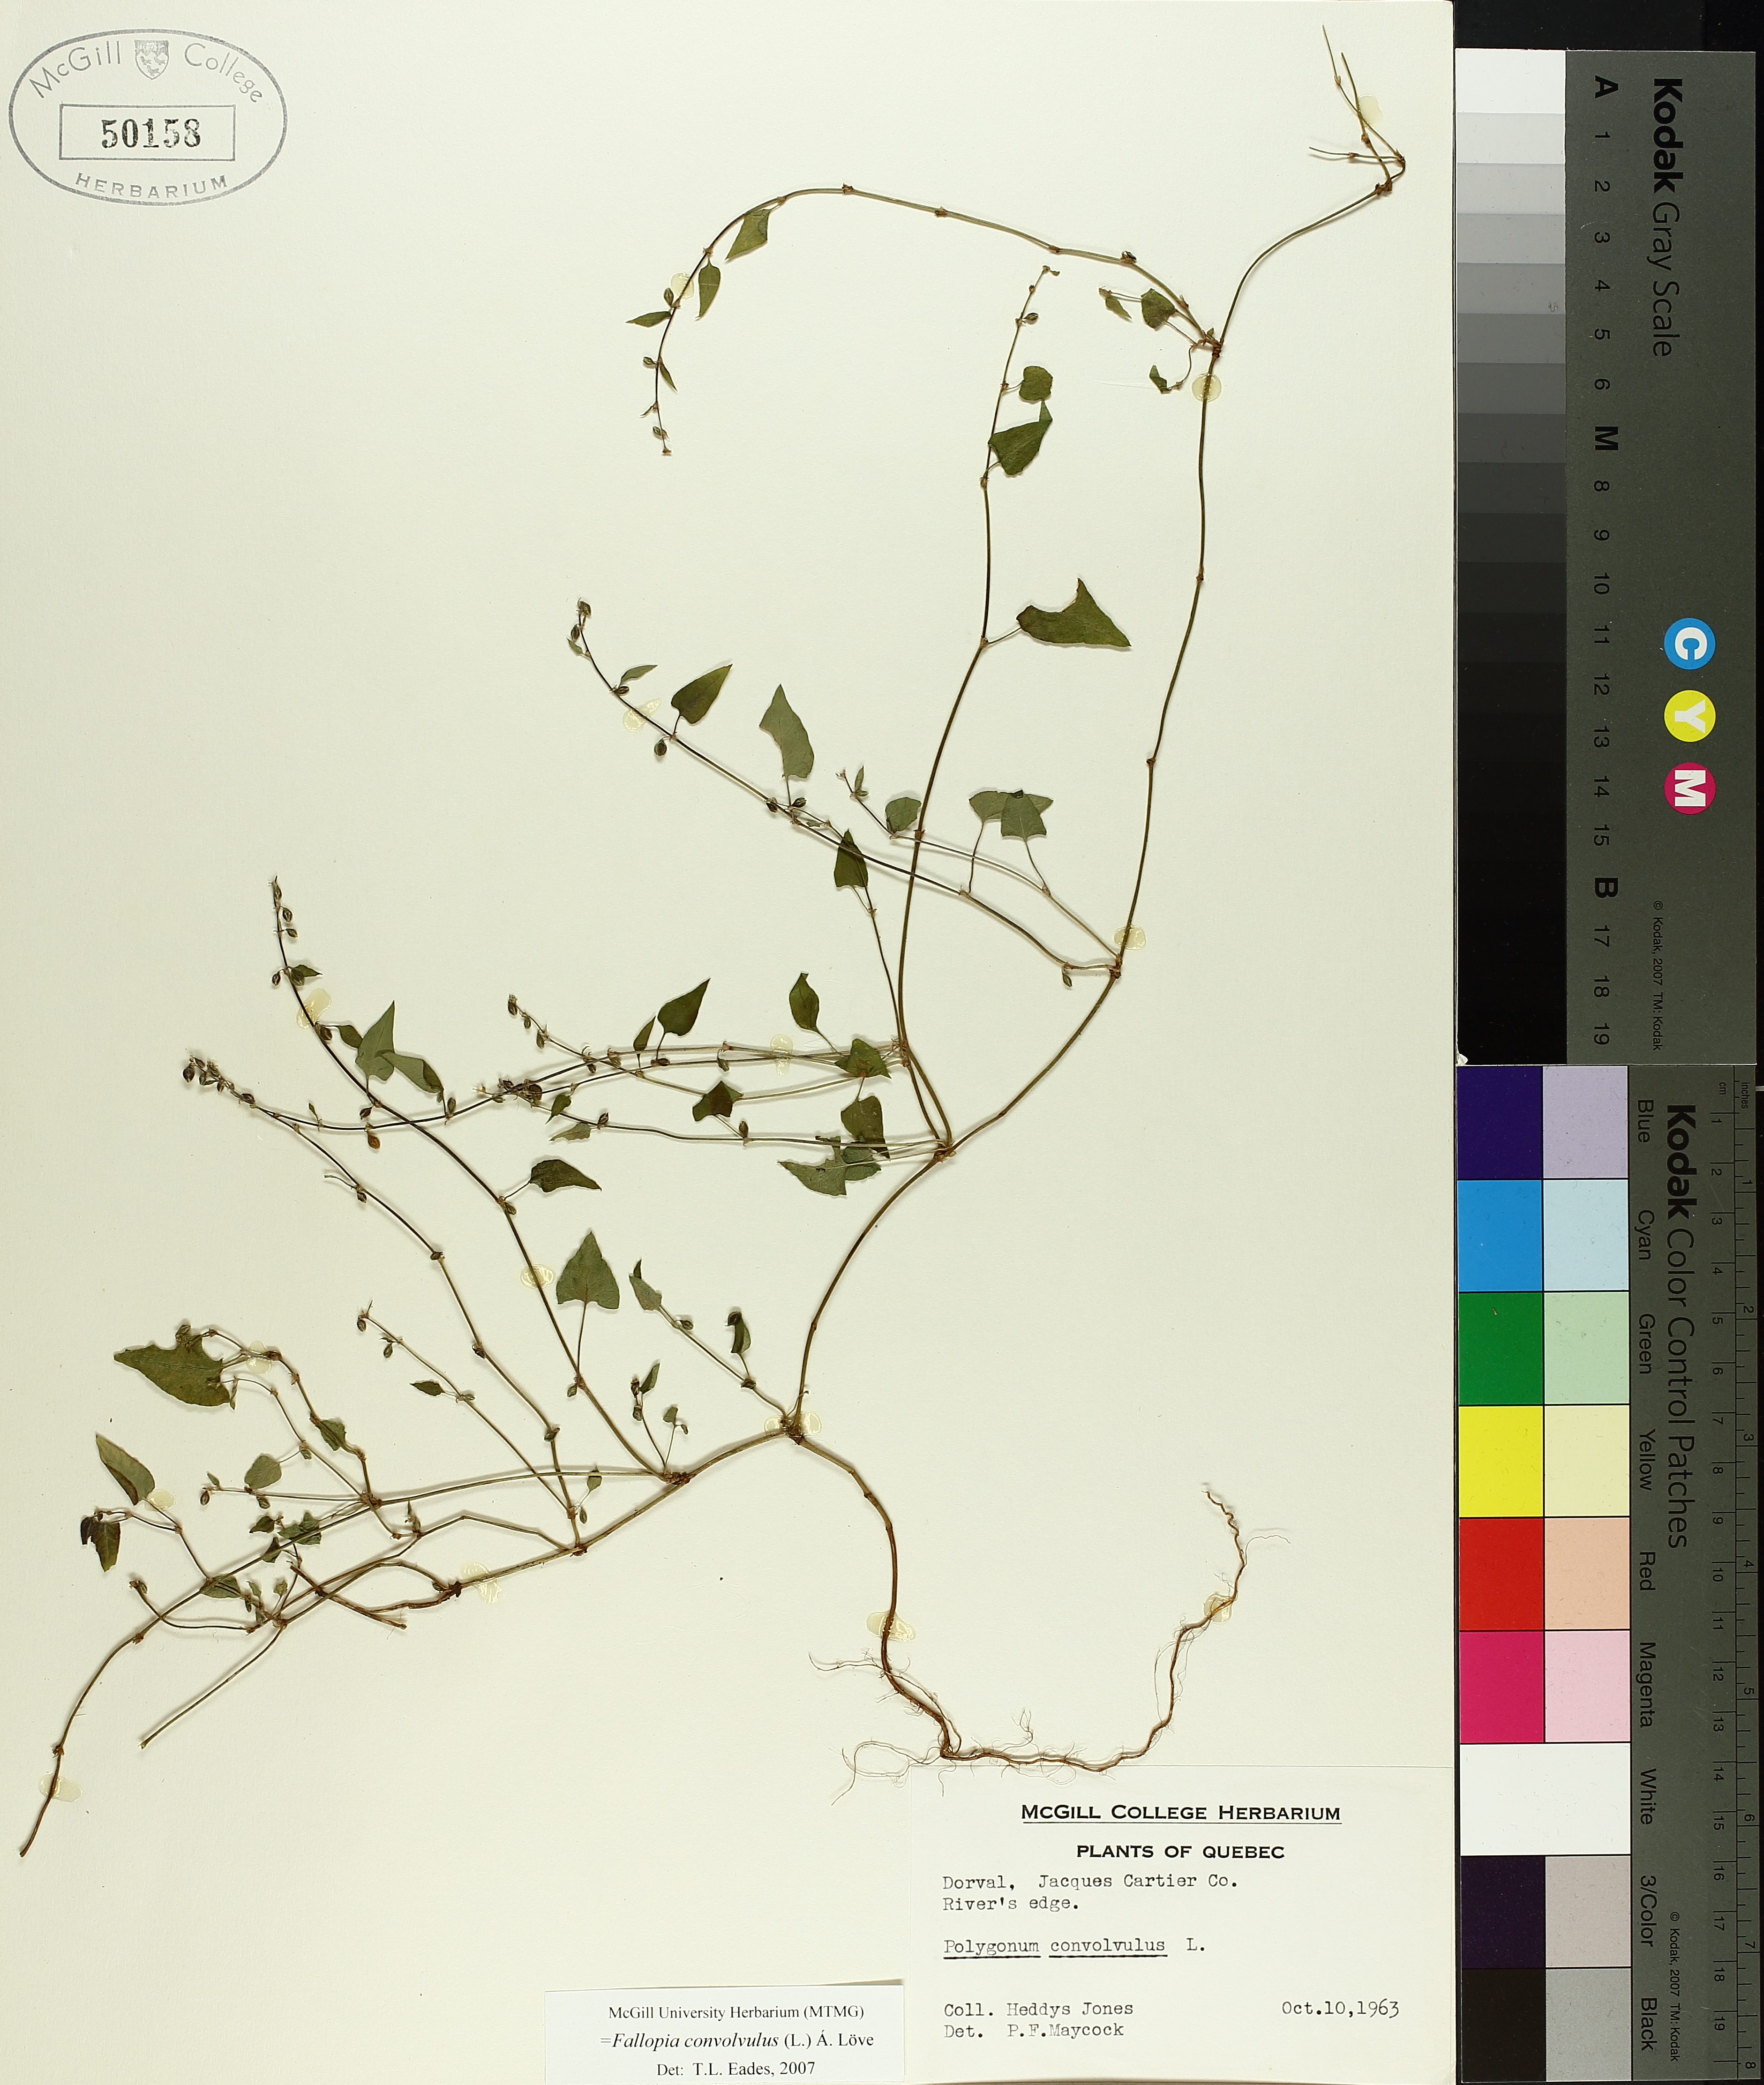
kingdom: Plantae
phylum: Tracheophyta
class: Magnoliopsida
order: Caryophyllales
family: Polygonaceae
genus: Fallopia
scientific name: Fallopia convolvulus
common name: Black bindweed
